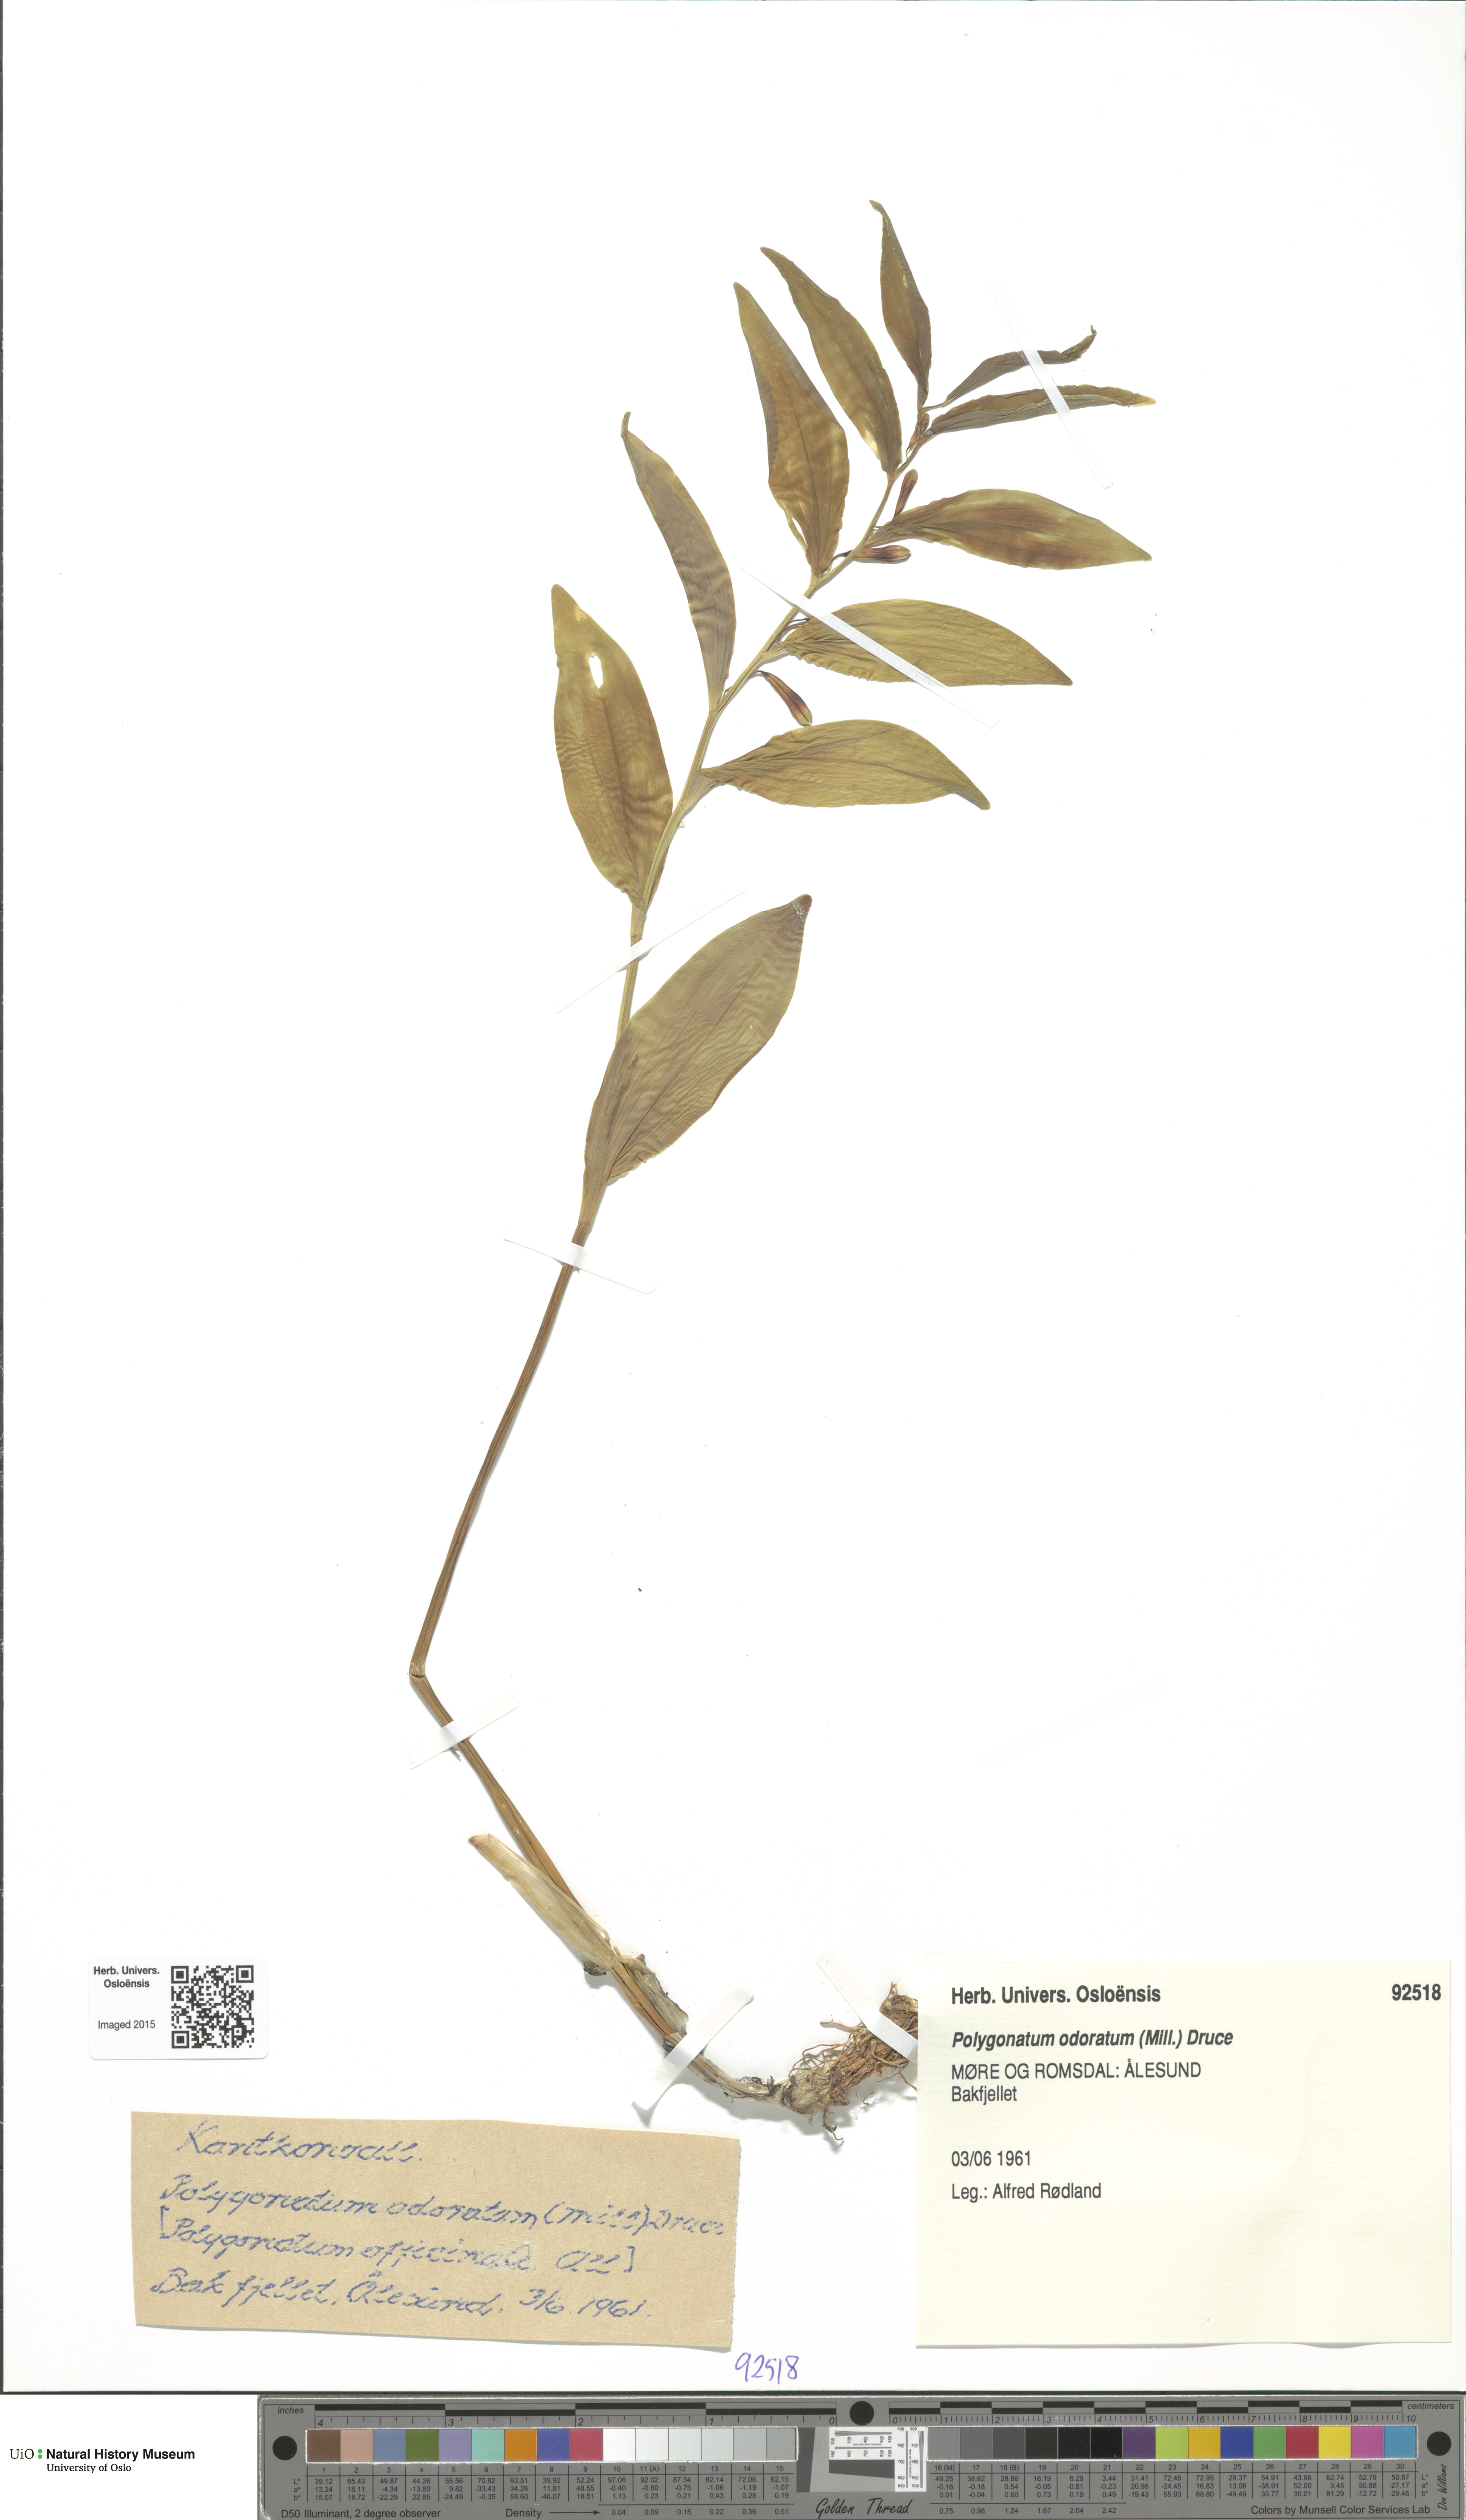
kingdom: Plantae
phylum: Tracheophyta
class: Liliopsida
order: Asparagales
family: Asparagaceae
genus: Polygonatum
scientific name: Polygonatum odoratum
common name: Angular solomon's-seal
